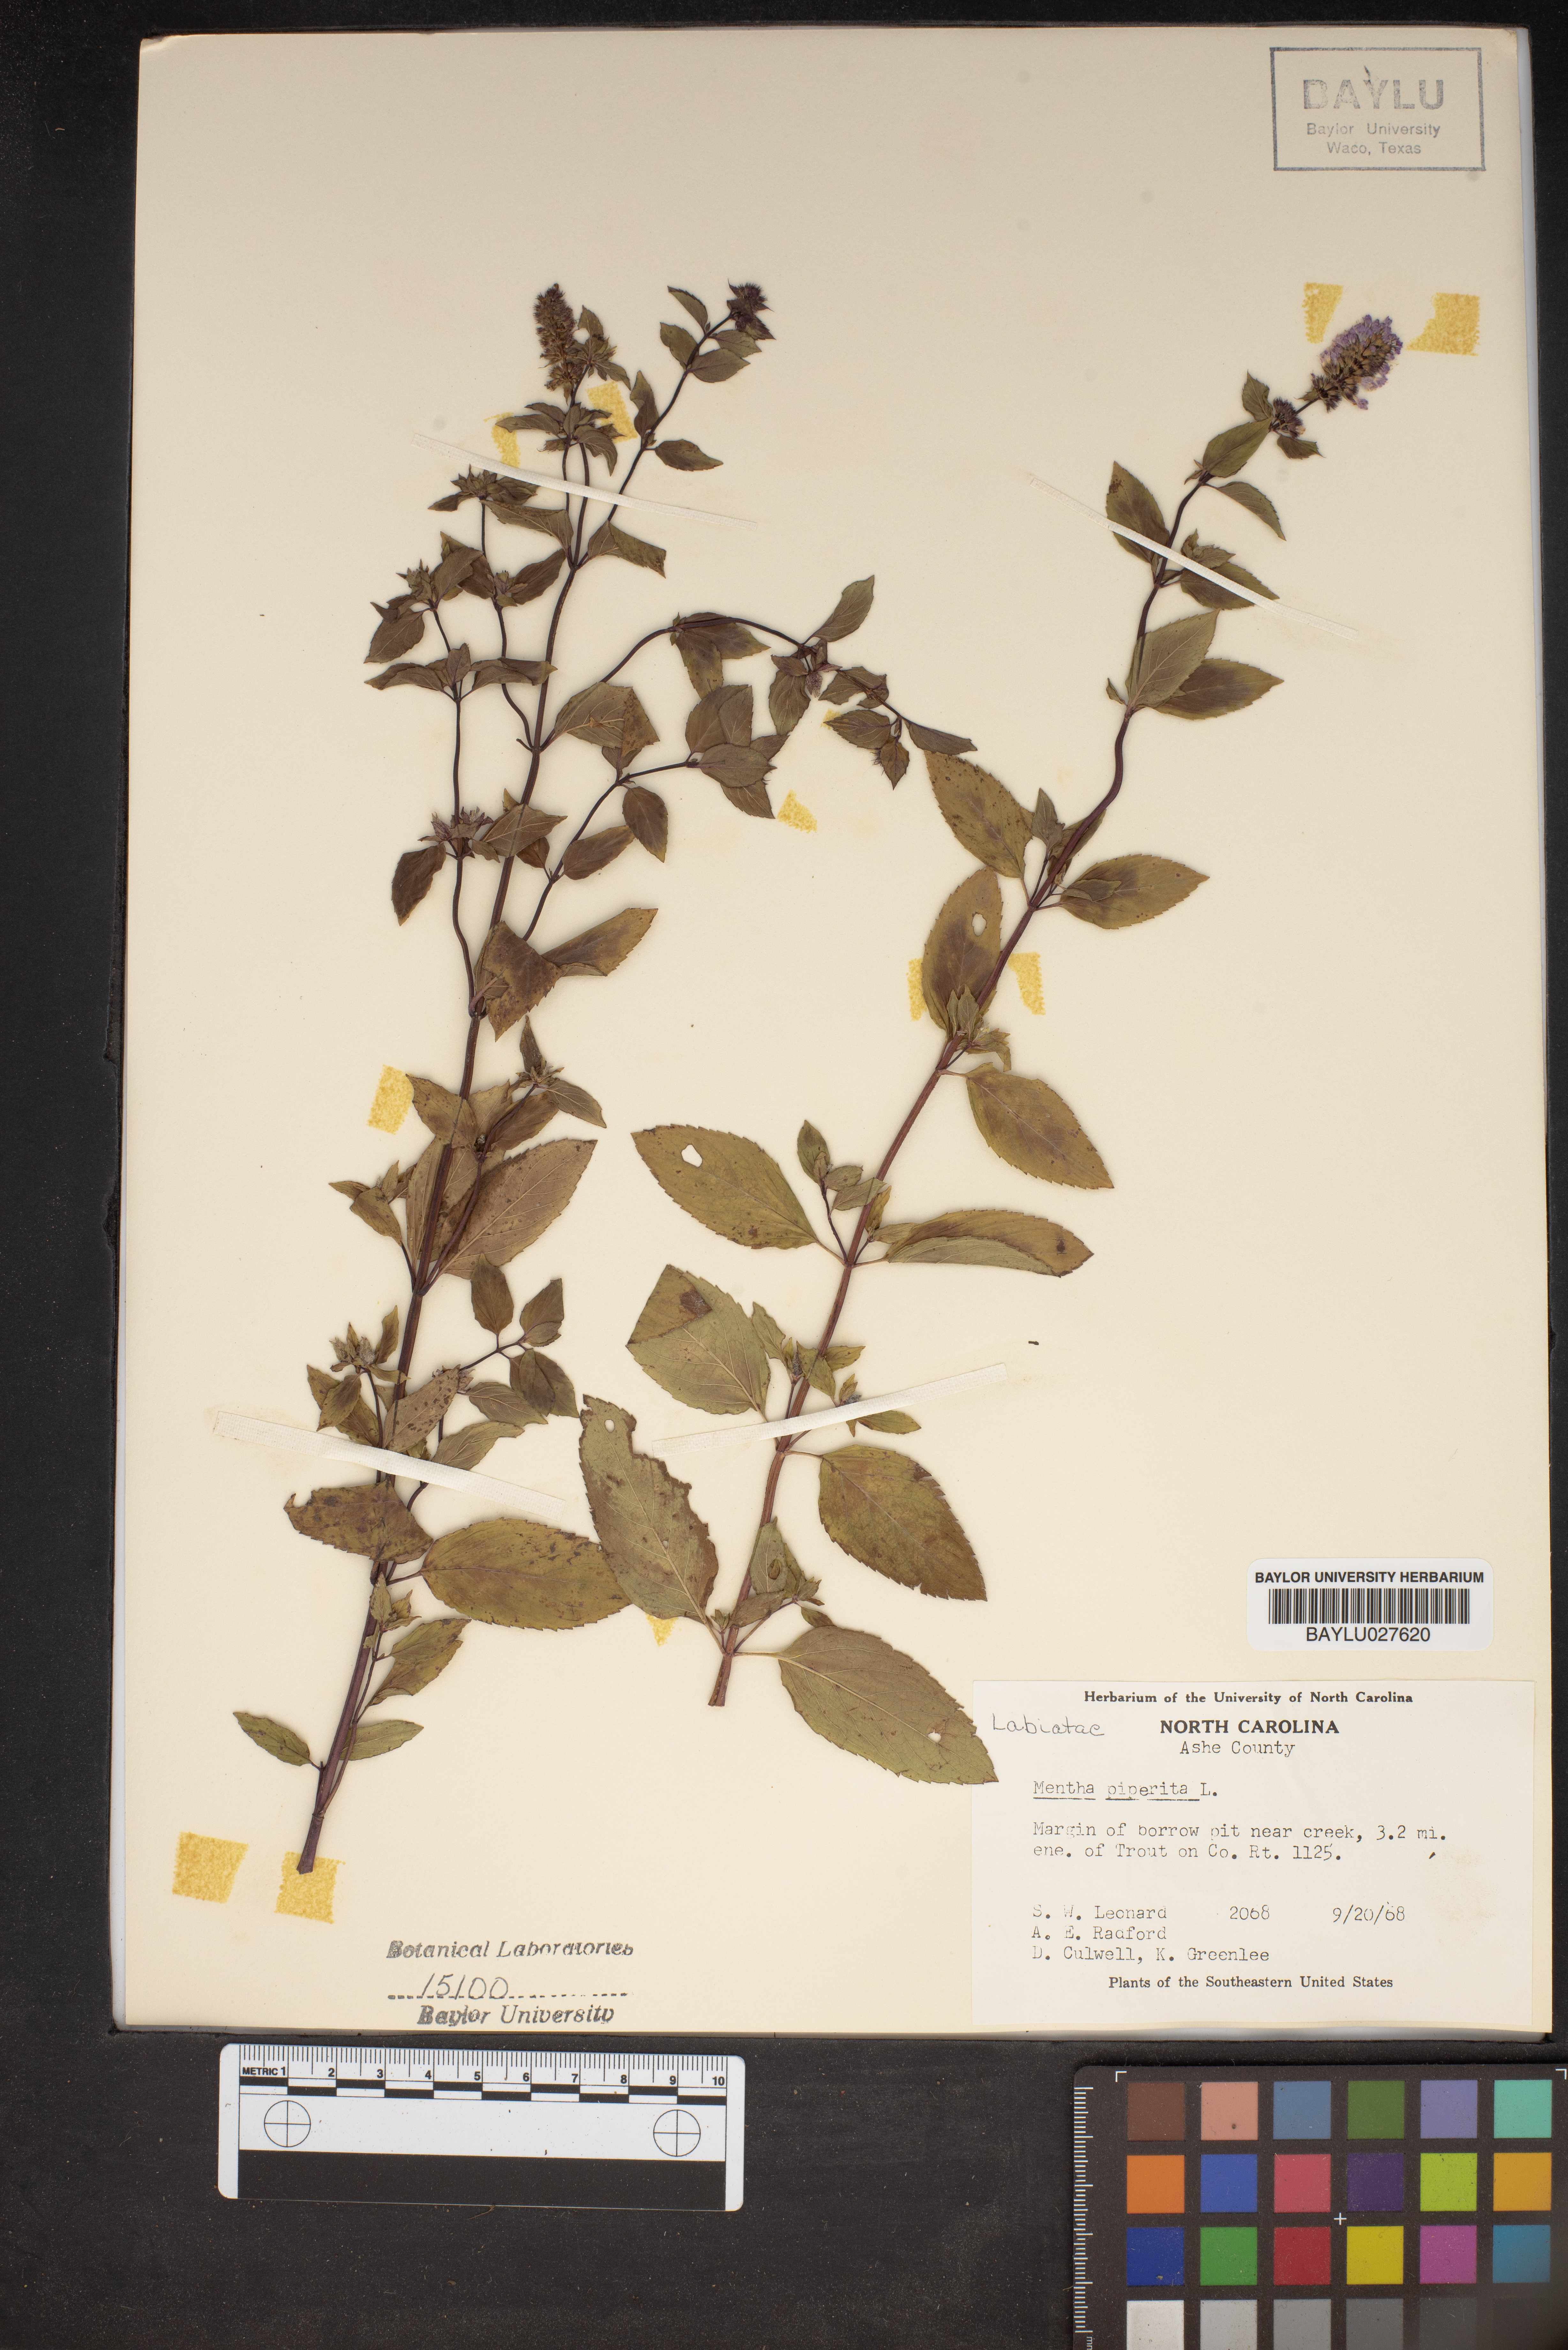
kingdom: Plantae
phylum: Tracheophyta
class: Magnoliopsida
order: Lamiales
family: Lamiaceae
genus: Mentha
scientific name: Mentha piperita
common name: Peppermint
